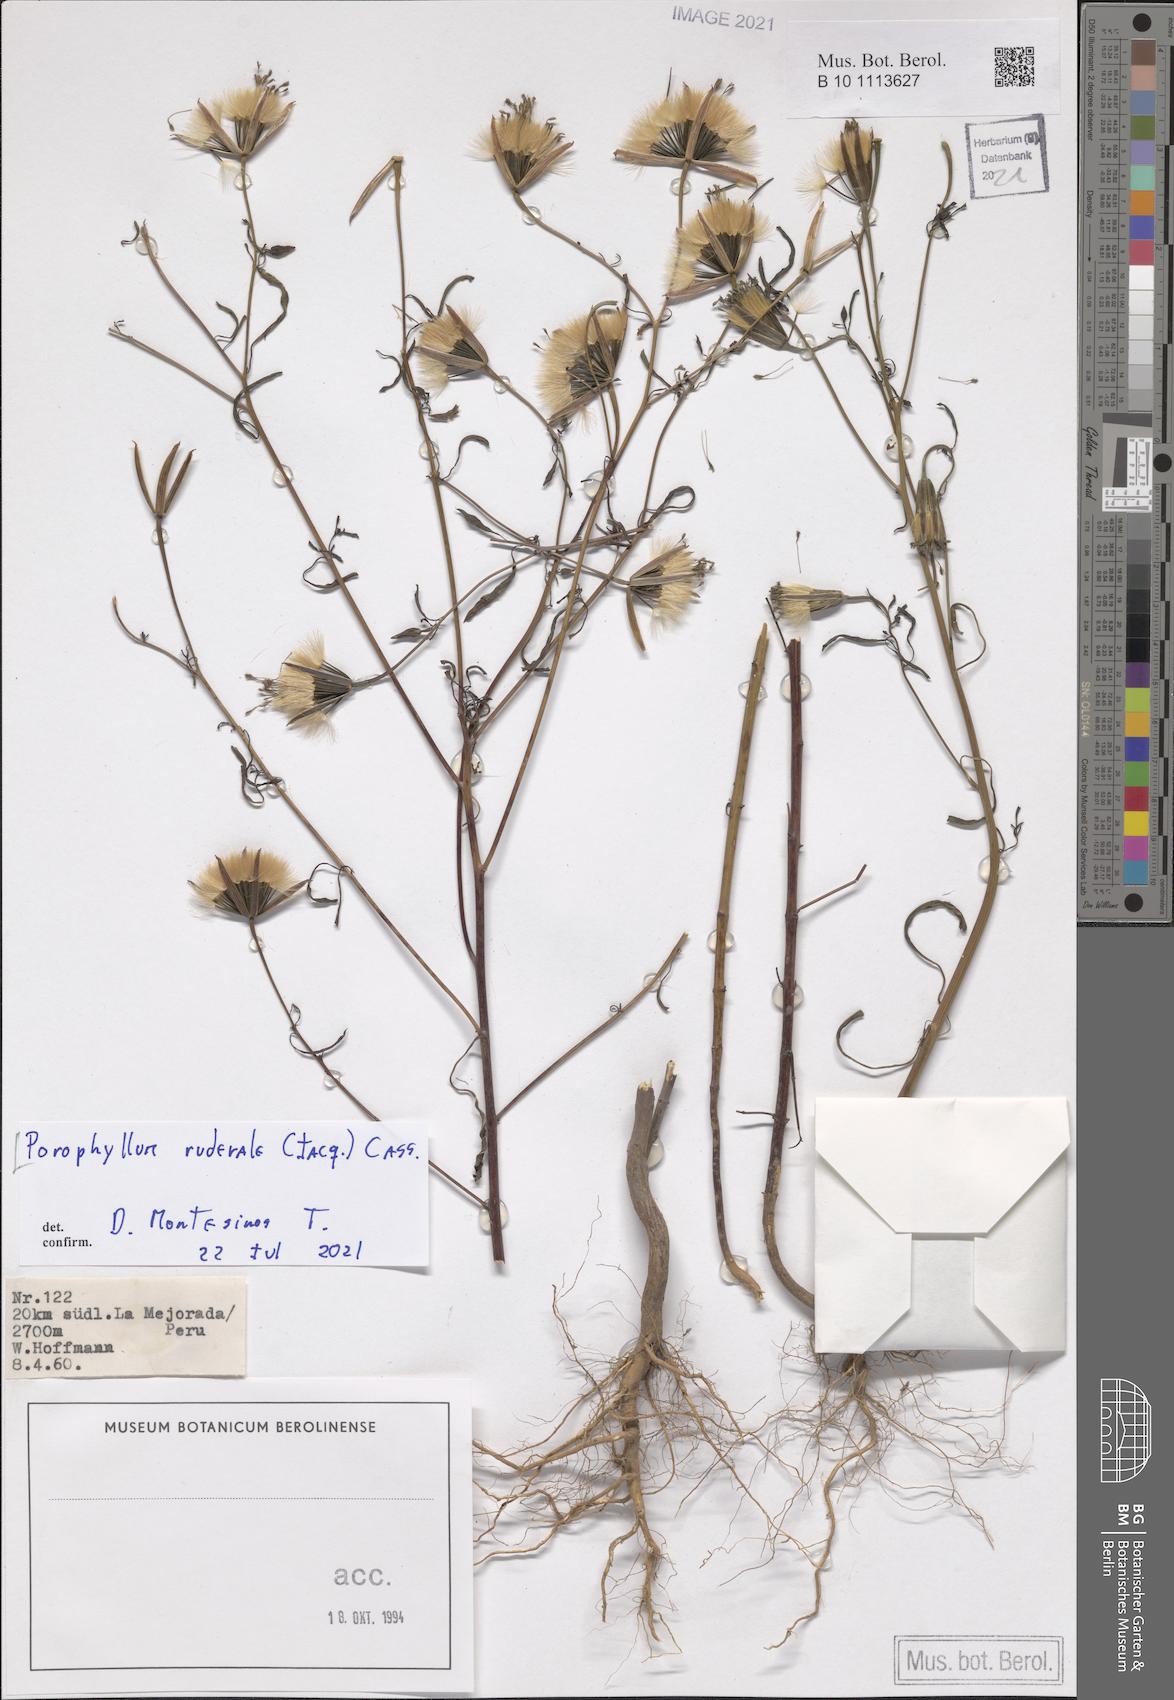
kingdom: Plantae
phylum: Tracheophyta
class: Magnoliopsida
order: Asterales
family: Asteraceae
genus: Porophyllum
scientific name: Porophyllum ruderale
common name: Yerba porosa
